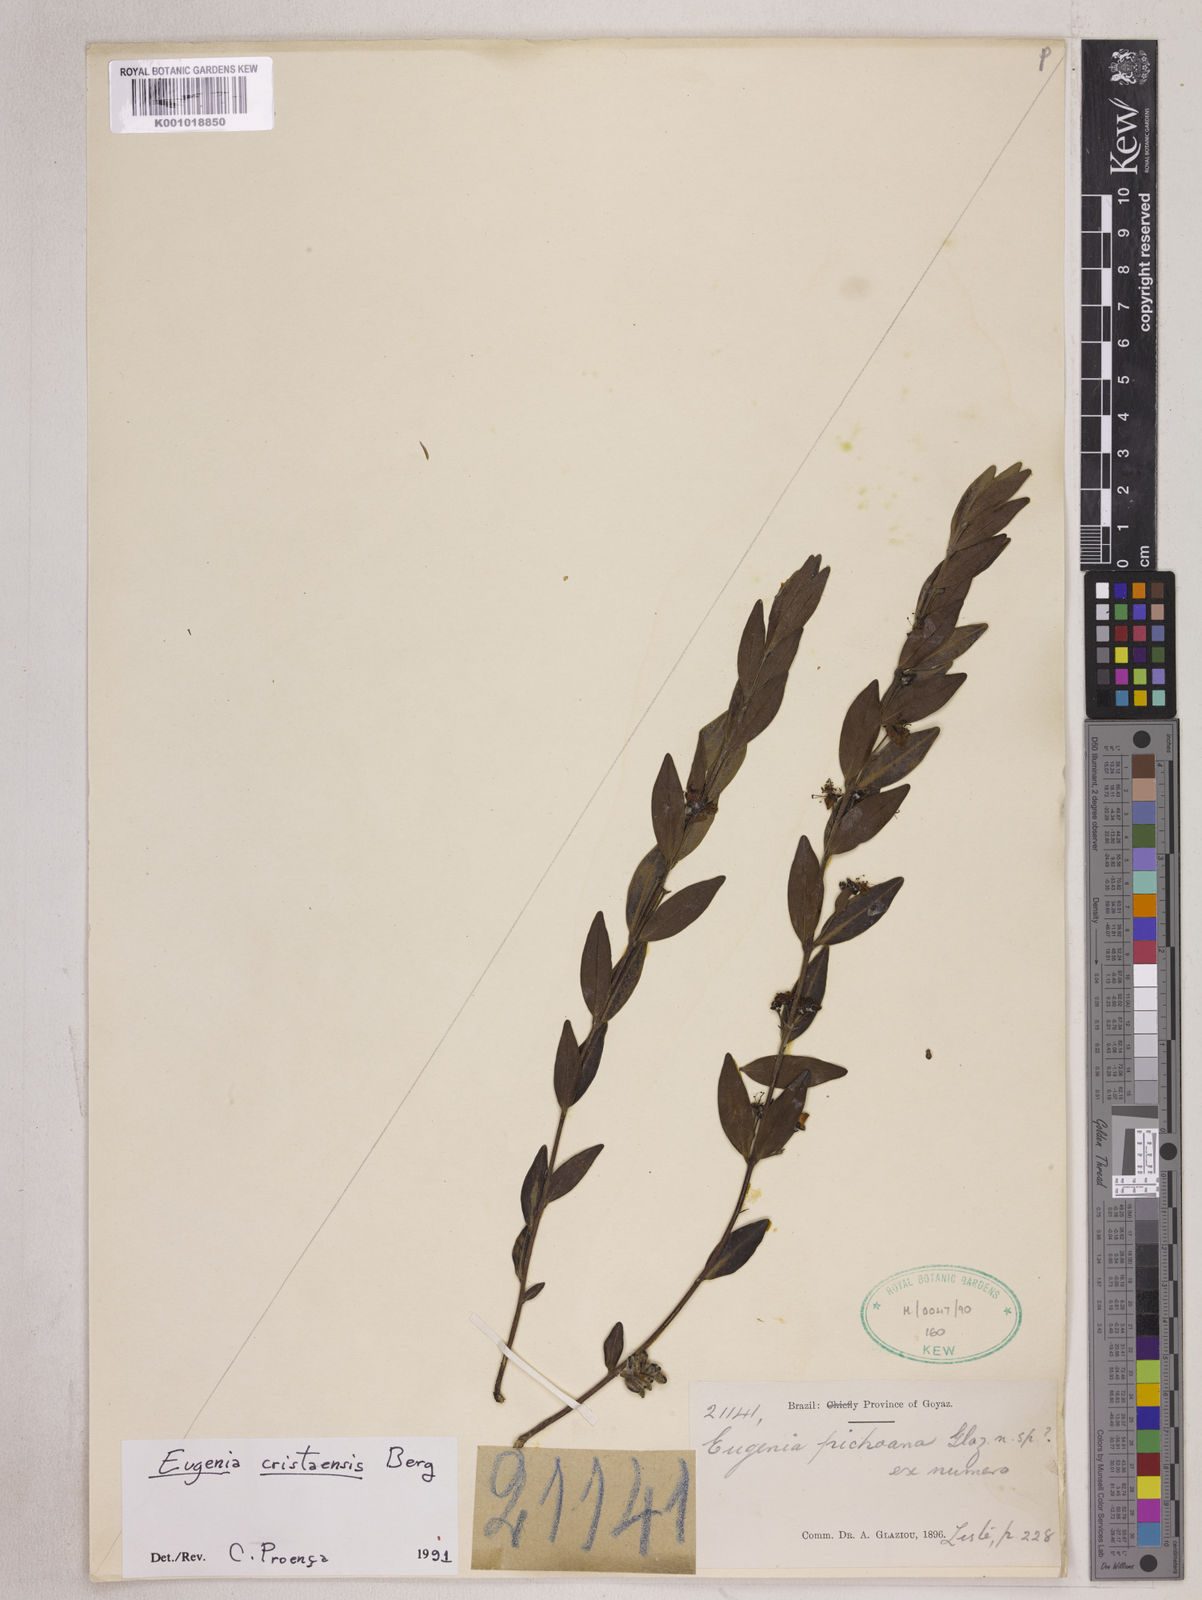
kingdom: Plantae
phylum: Tracheophyta
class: Magnoliopsida
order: Myrtales
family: Myrtaceae
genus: Eugenia
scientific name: Eugenia cristaensis
